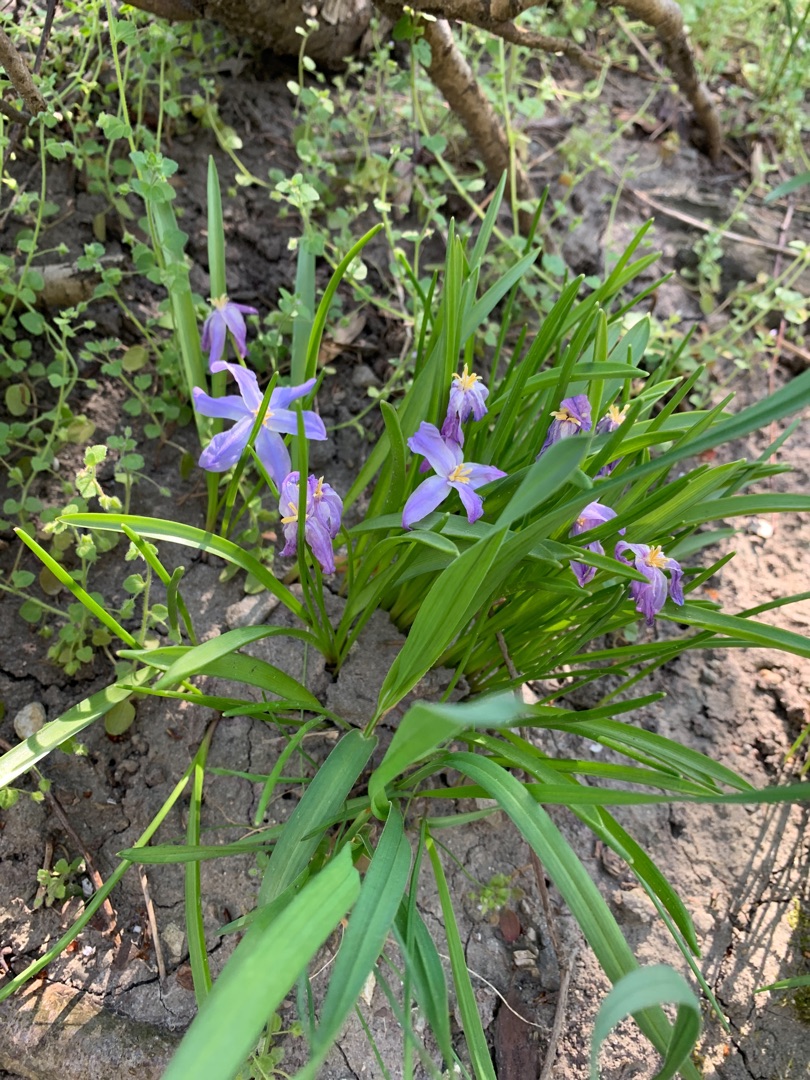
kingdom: Plantae
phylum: Tracheophyta
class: Liliopsida
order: Asparagales
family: Asparagaceae
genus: Scilla
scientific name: Scilla luciliae
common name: Stor snepryd
